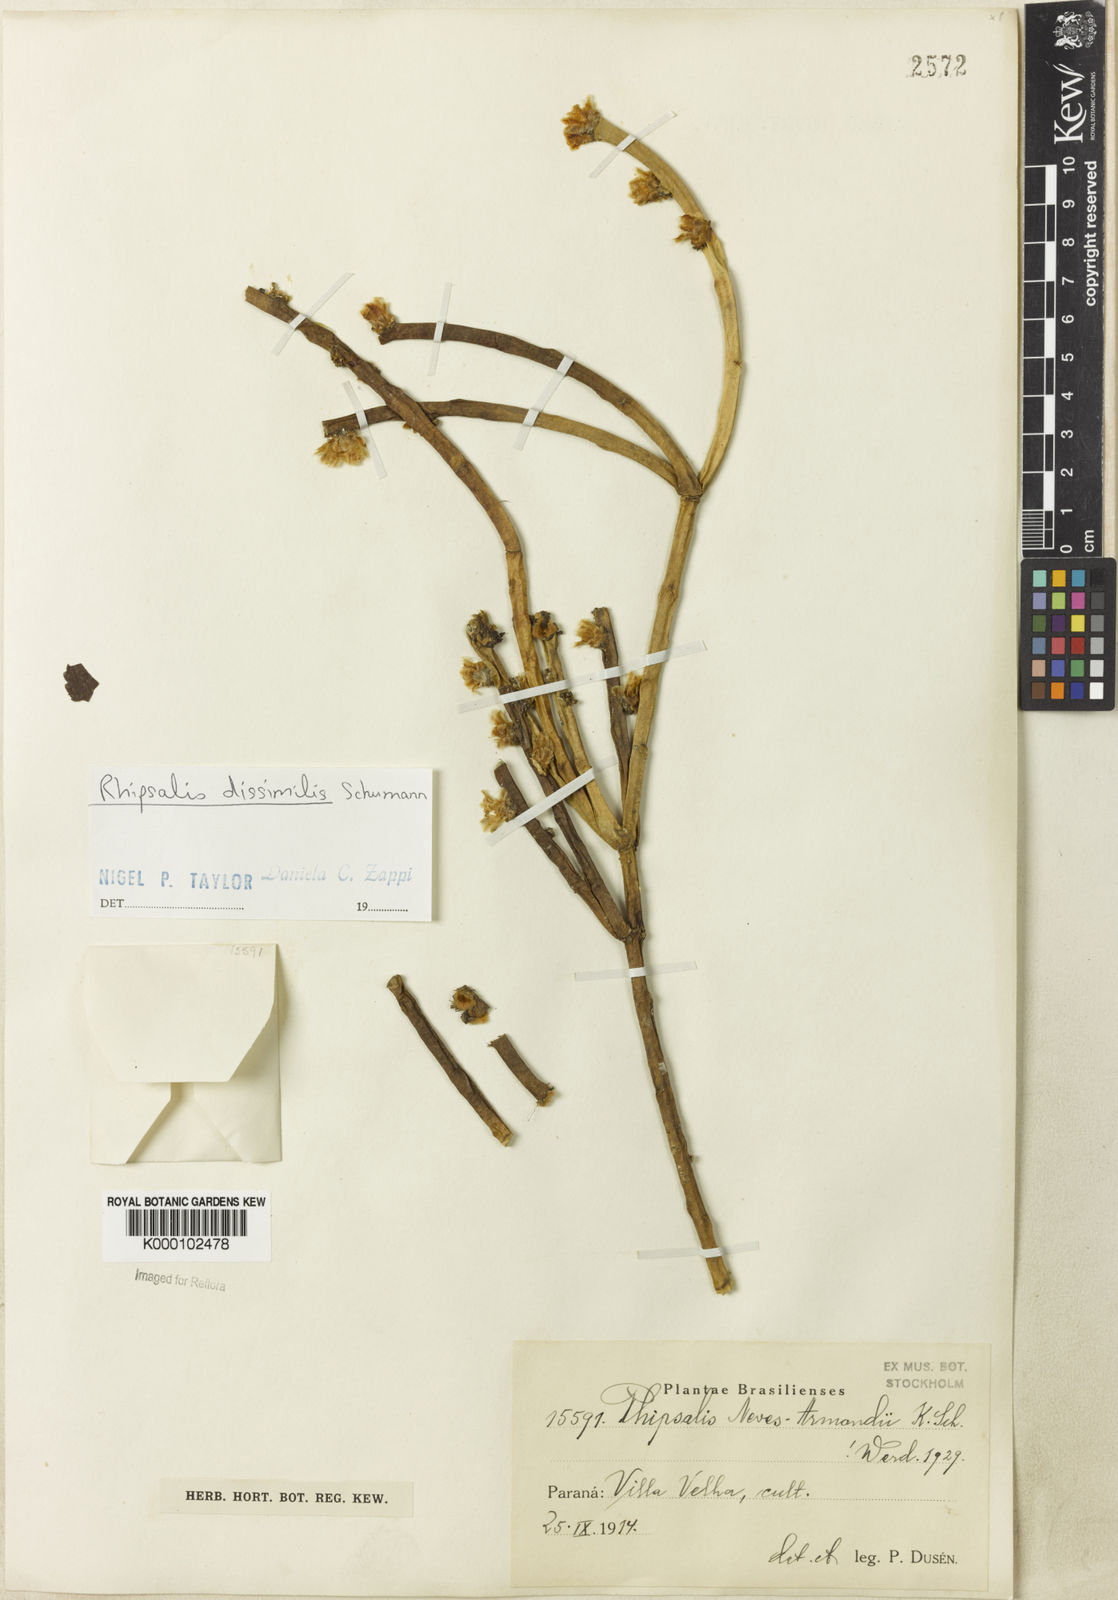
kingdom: Plantae
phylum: Tracheophyta
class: Magnoliopsida
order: Caryophyllales
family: Cactaceae
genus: Rhipsalis
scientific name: Rhipsalis dissimilis
